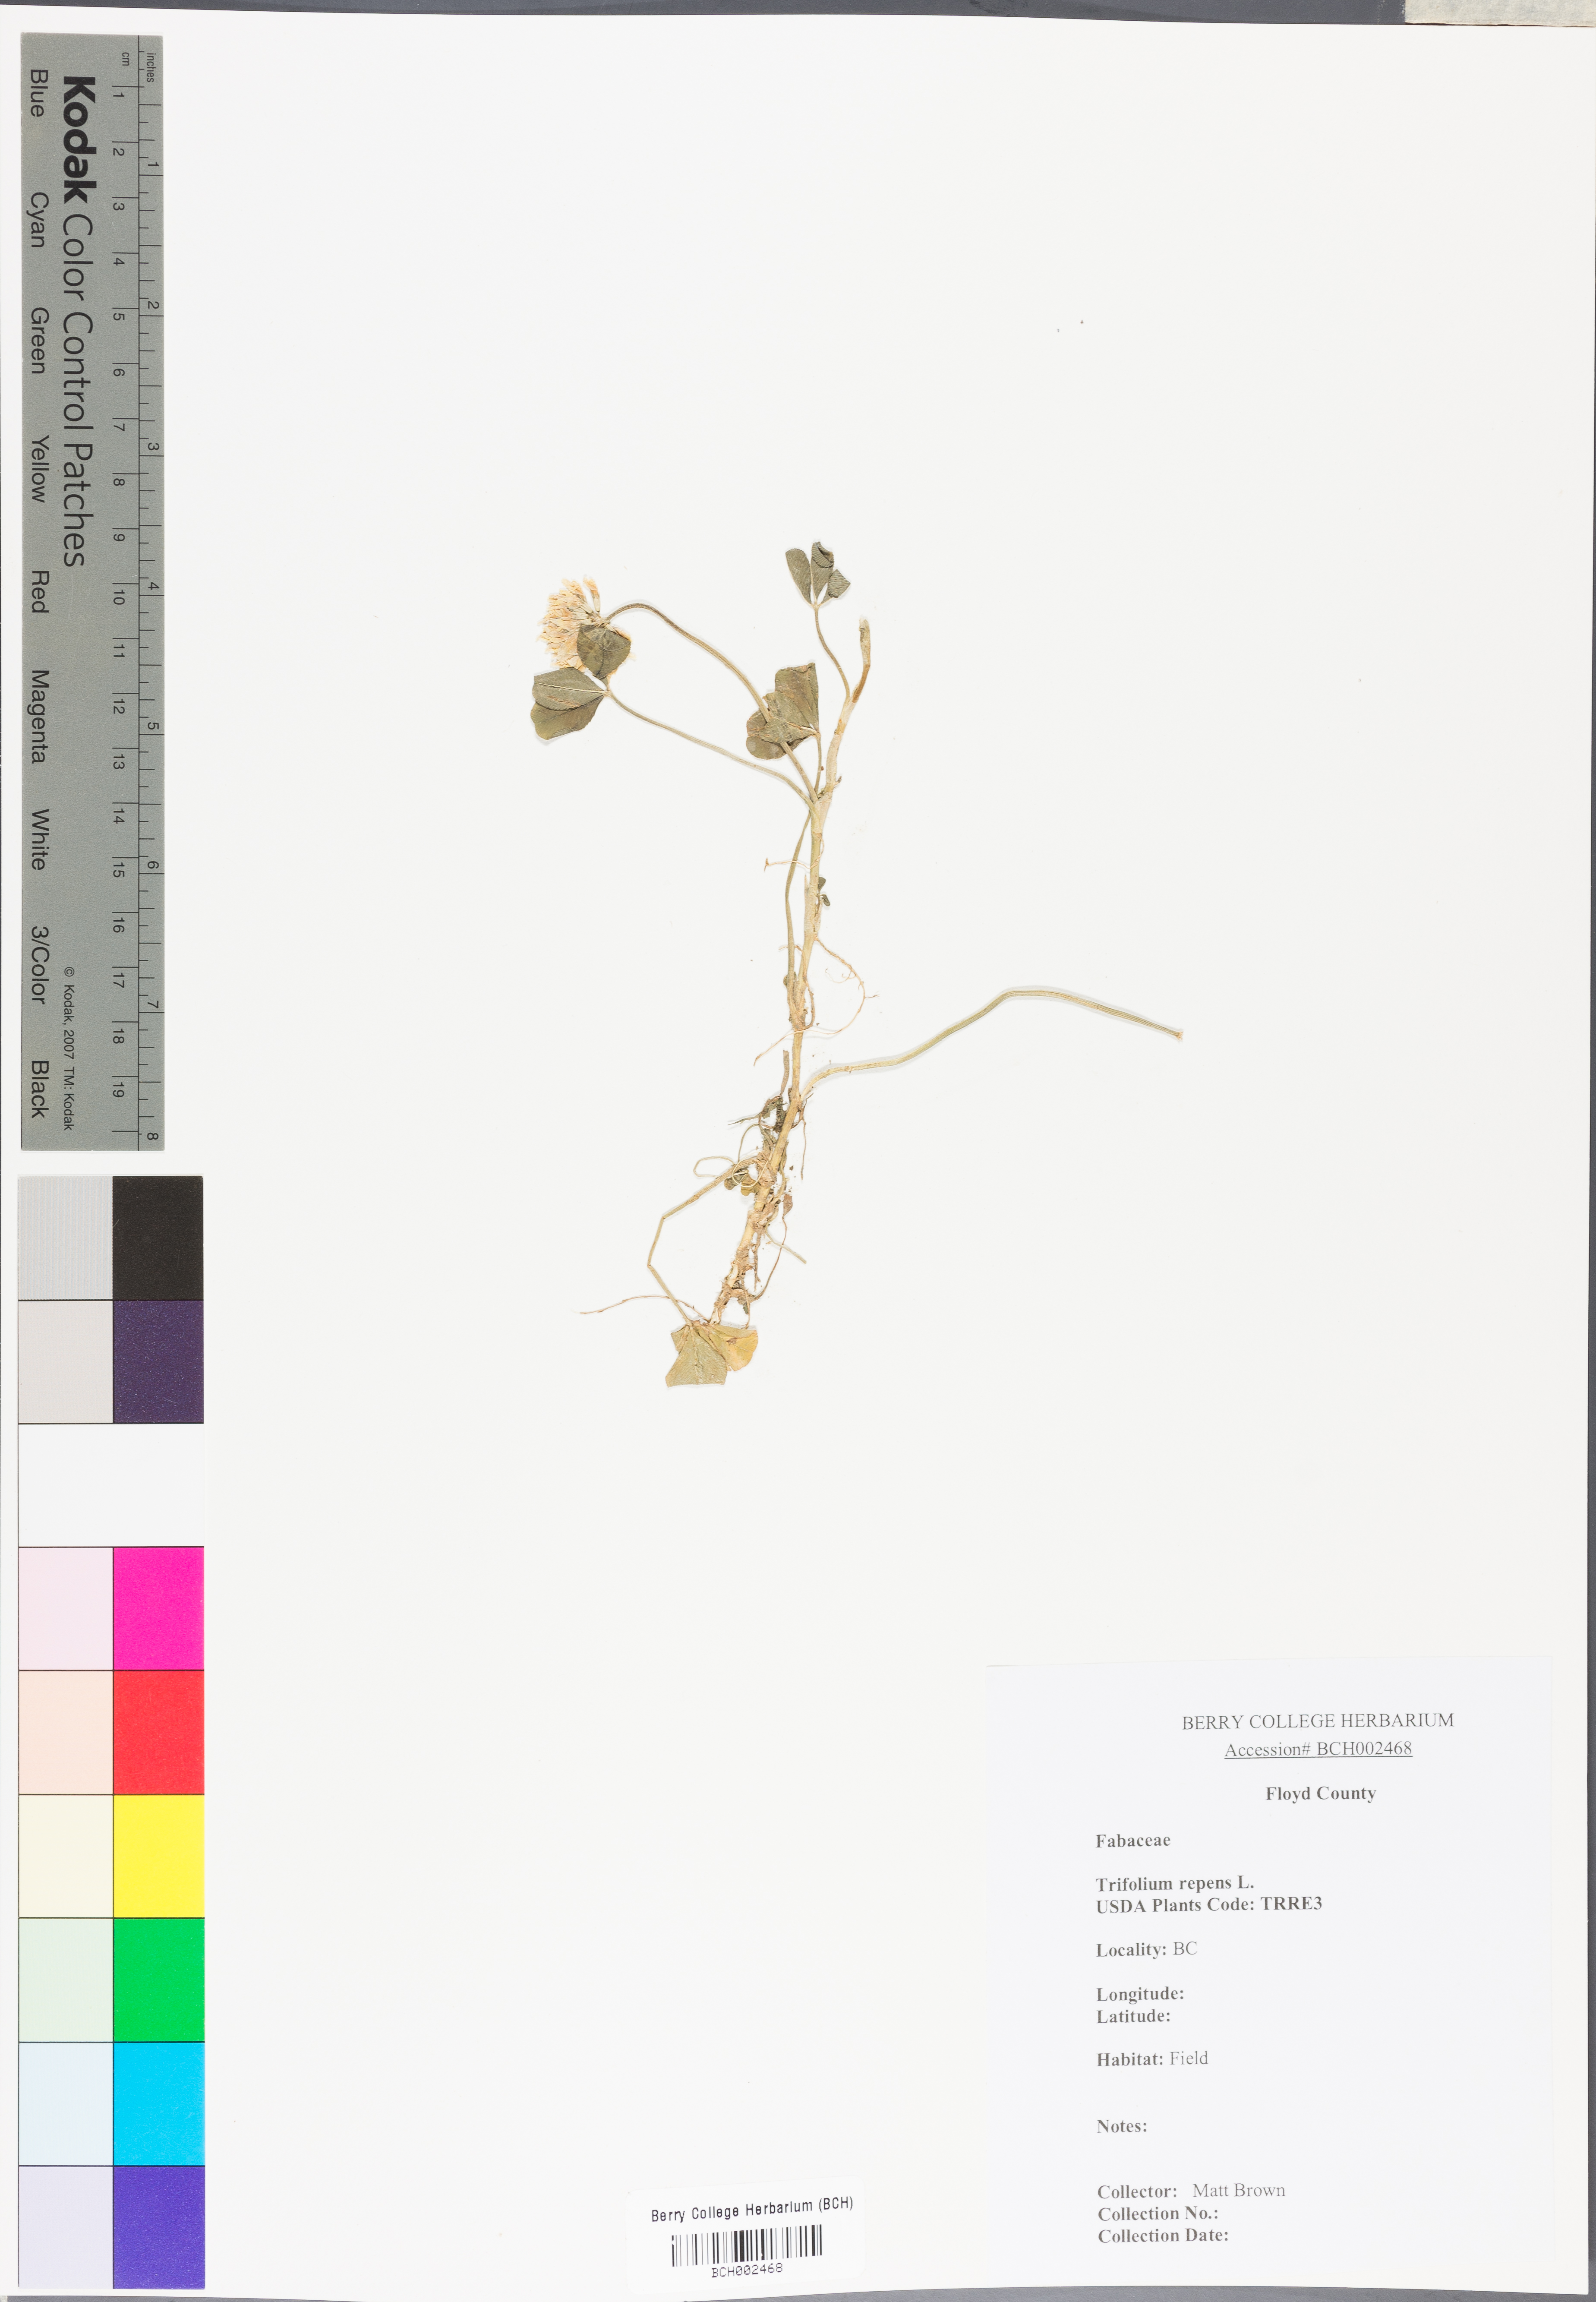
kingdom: Plantae
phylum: Tracheophyta
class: Magnoliopsida
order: Fabales
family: Fabaceae
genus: Trifolium
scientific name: Trifolium repens
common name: White clover
